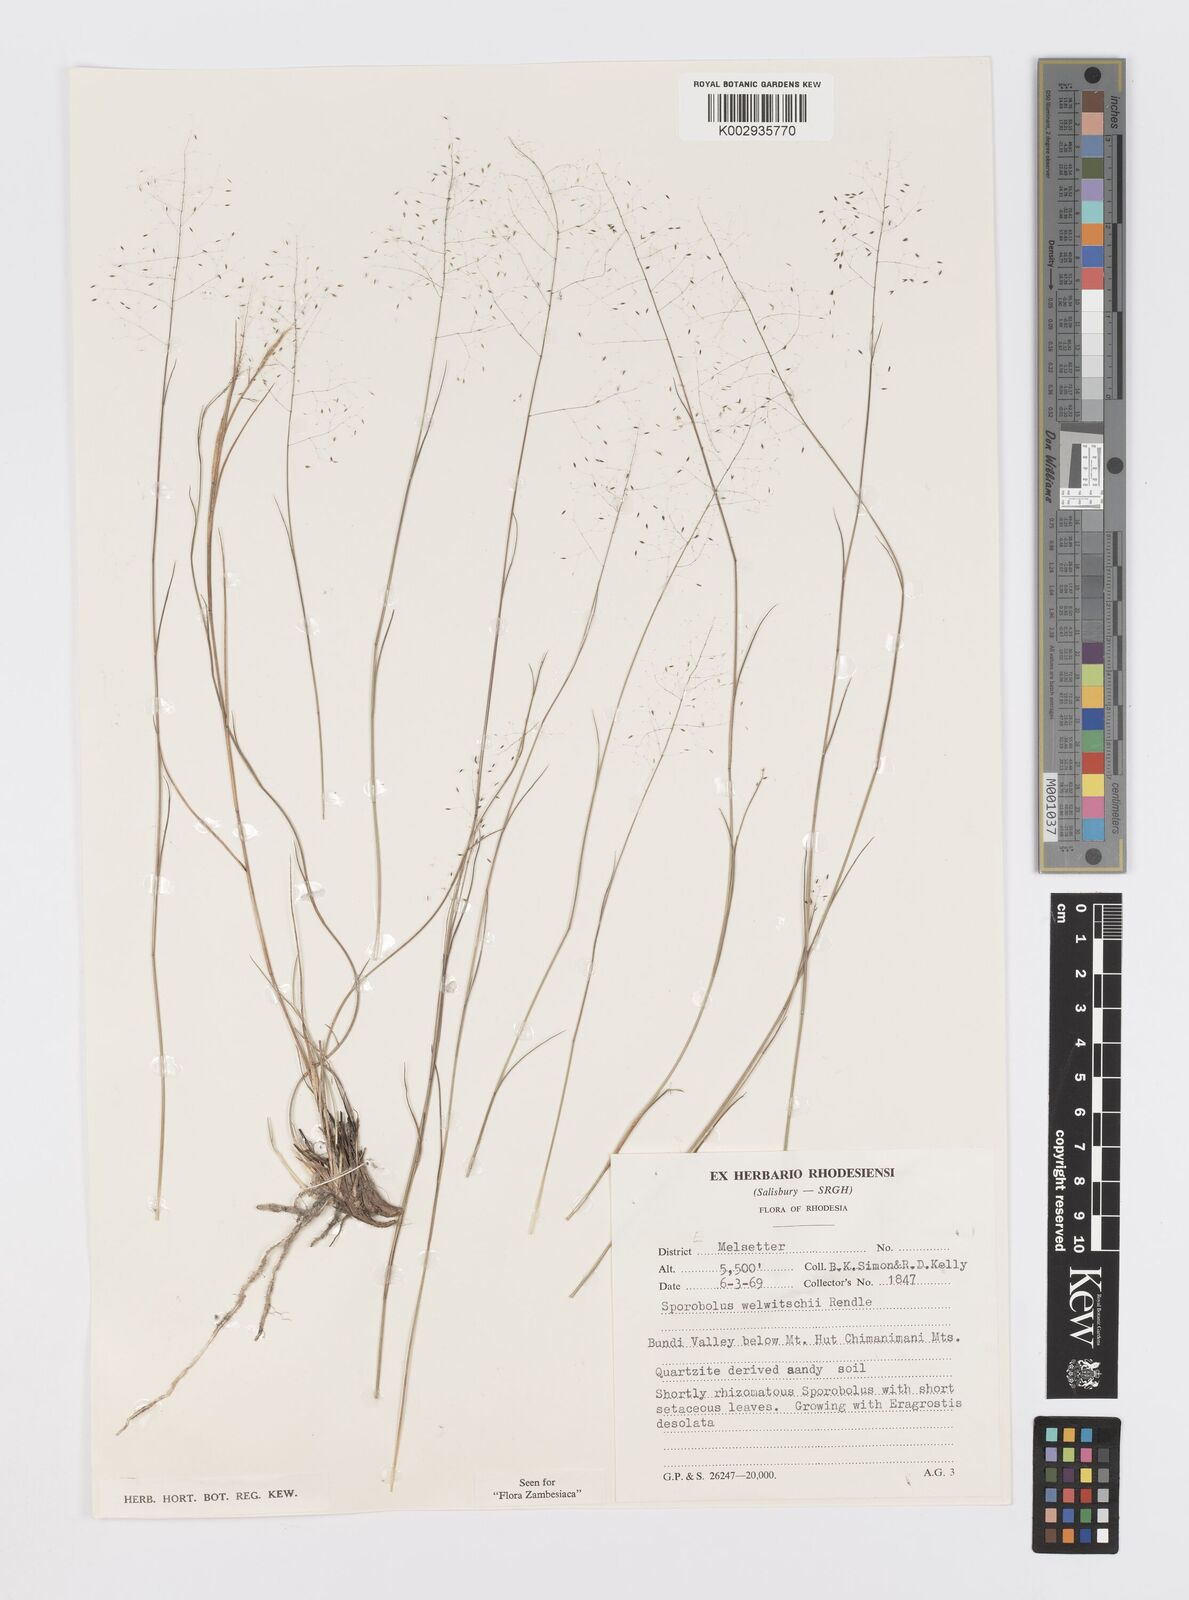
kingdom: Plantae
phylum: Tracheophyta
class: Liliopsida
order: Poales
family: Poaceae
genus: Sporobolus
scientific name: Sporobolus welwitschii
